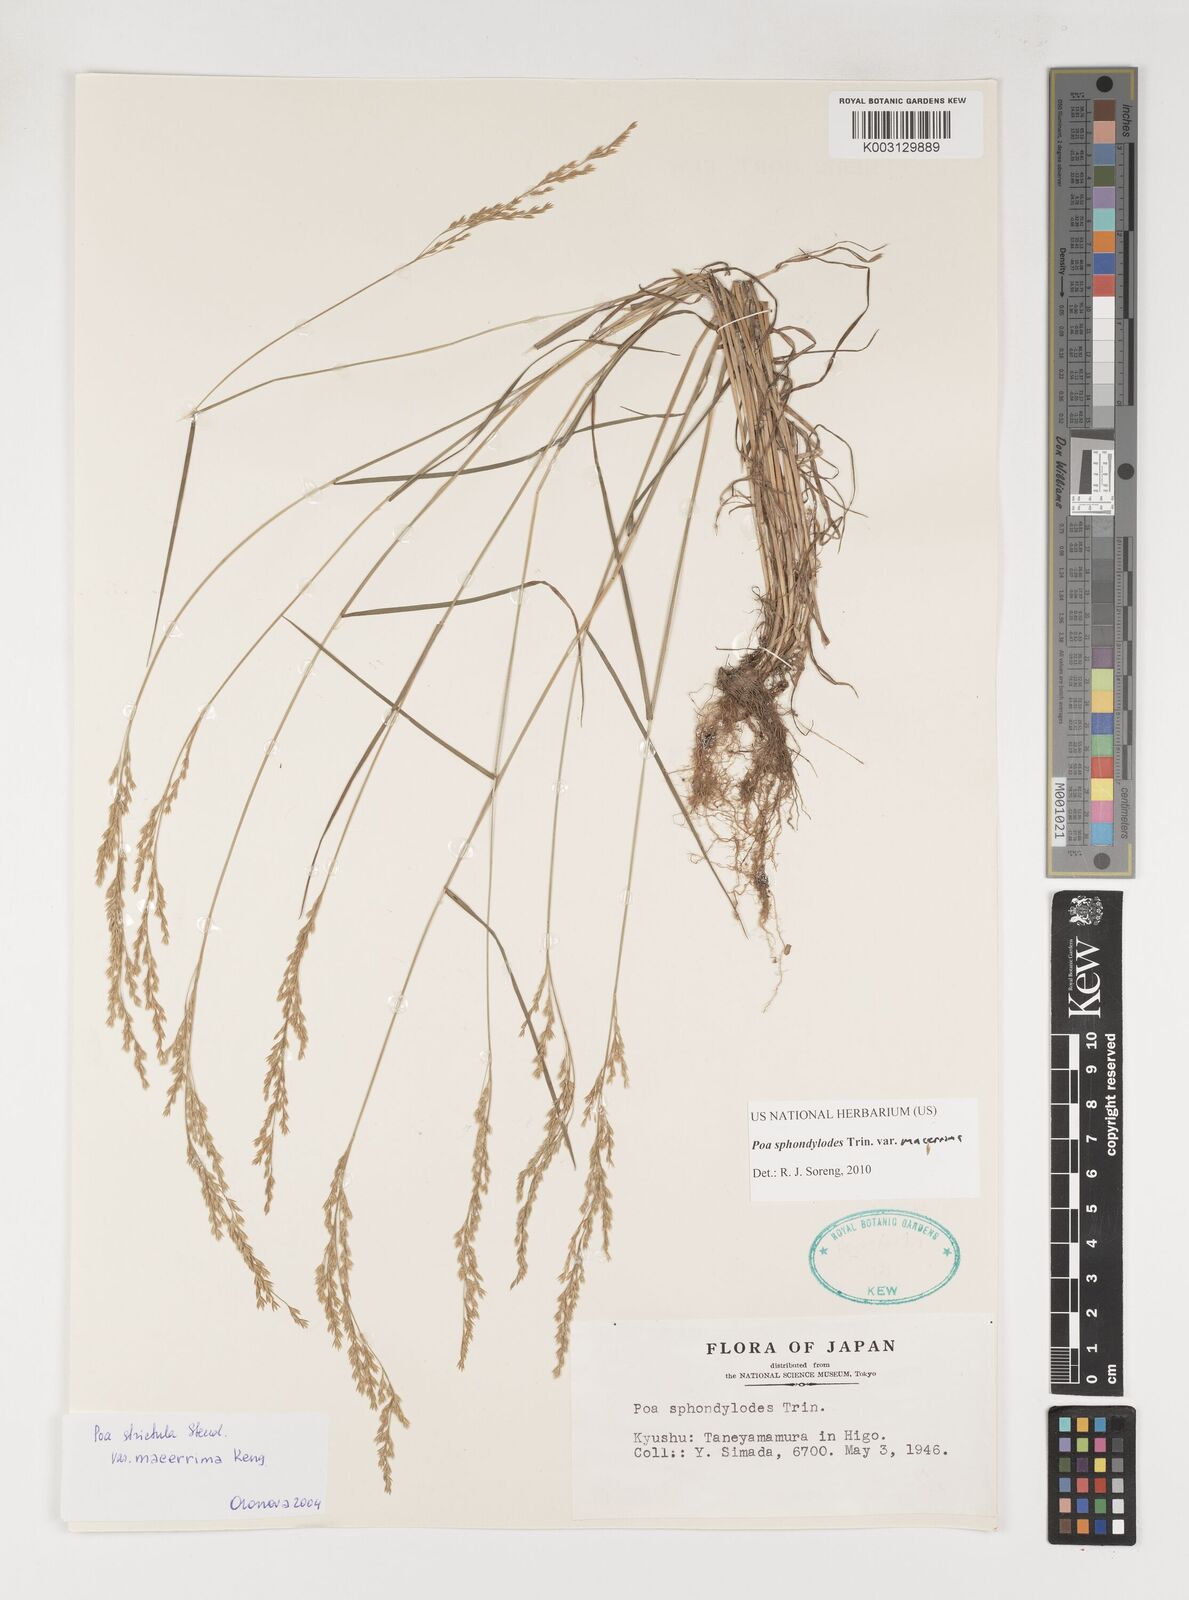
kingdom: Plantae
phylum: Tracheophyta
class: Liliopsida
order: Poales
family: Poaceae
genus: Poa
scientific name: Poa sphondylodes
